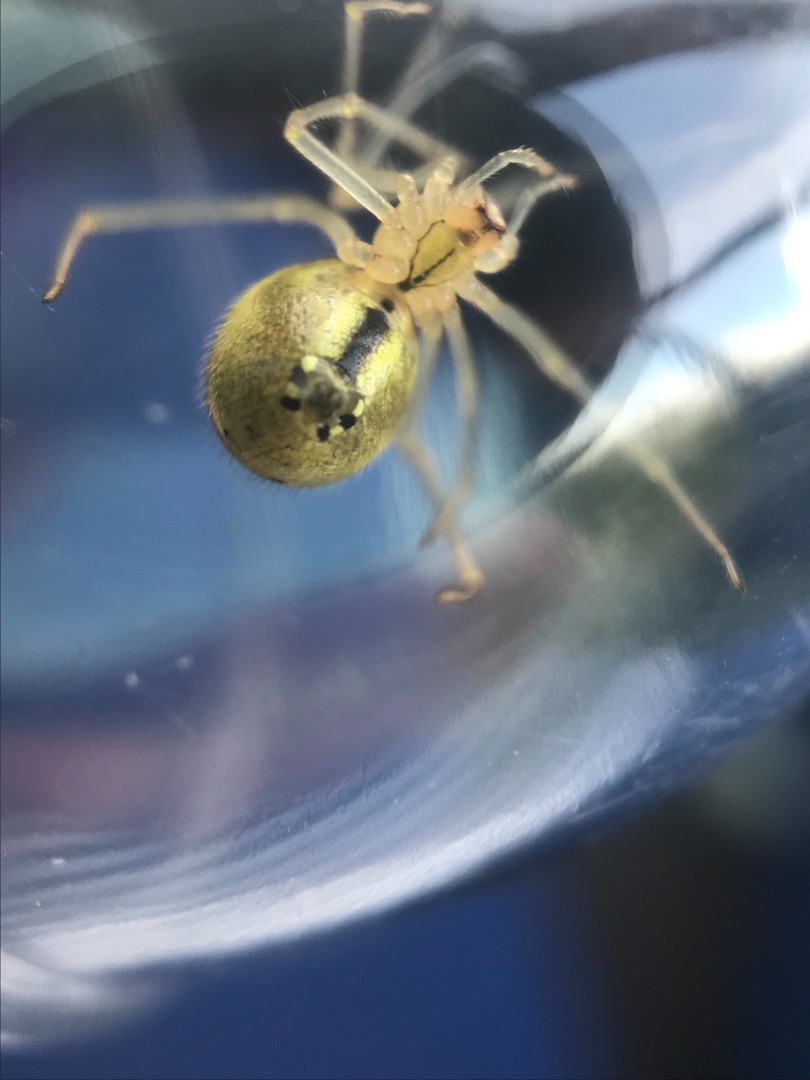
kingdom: Animalia
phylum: Arthropoda
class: Arachnida
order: Araneae
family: Theridiidae
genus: Enoplognatha
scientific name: Enoplognatha ovata
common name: Perleedderkop
